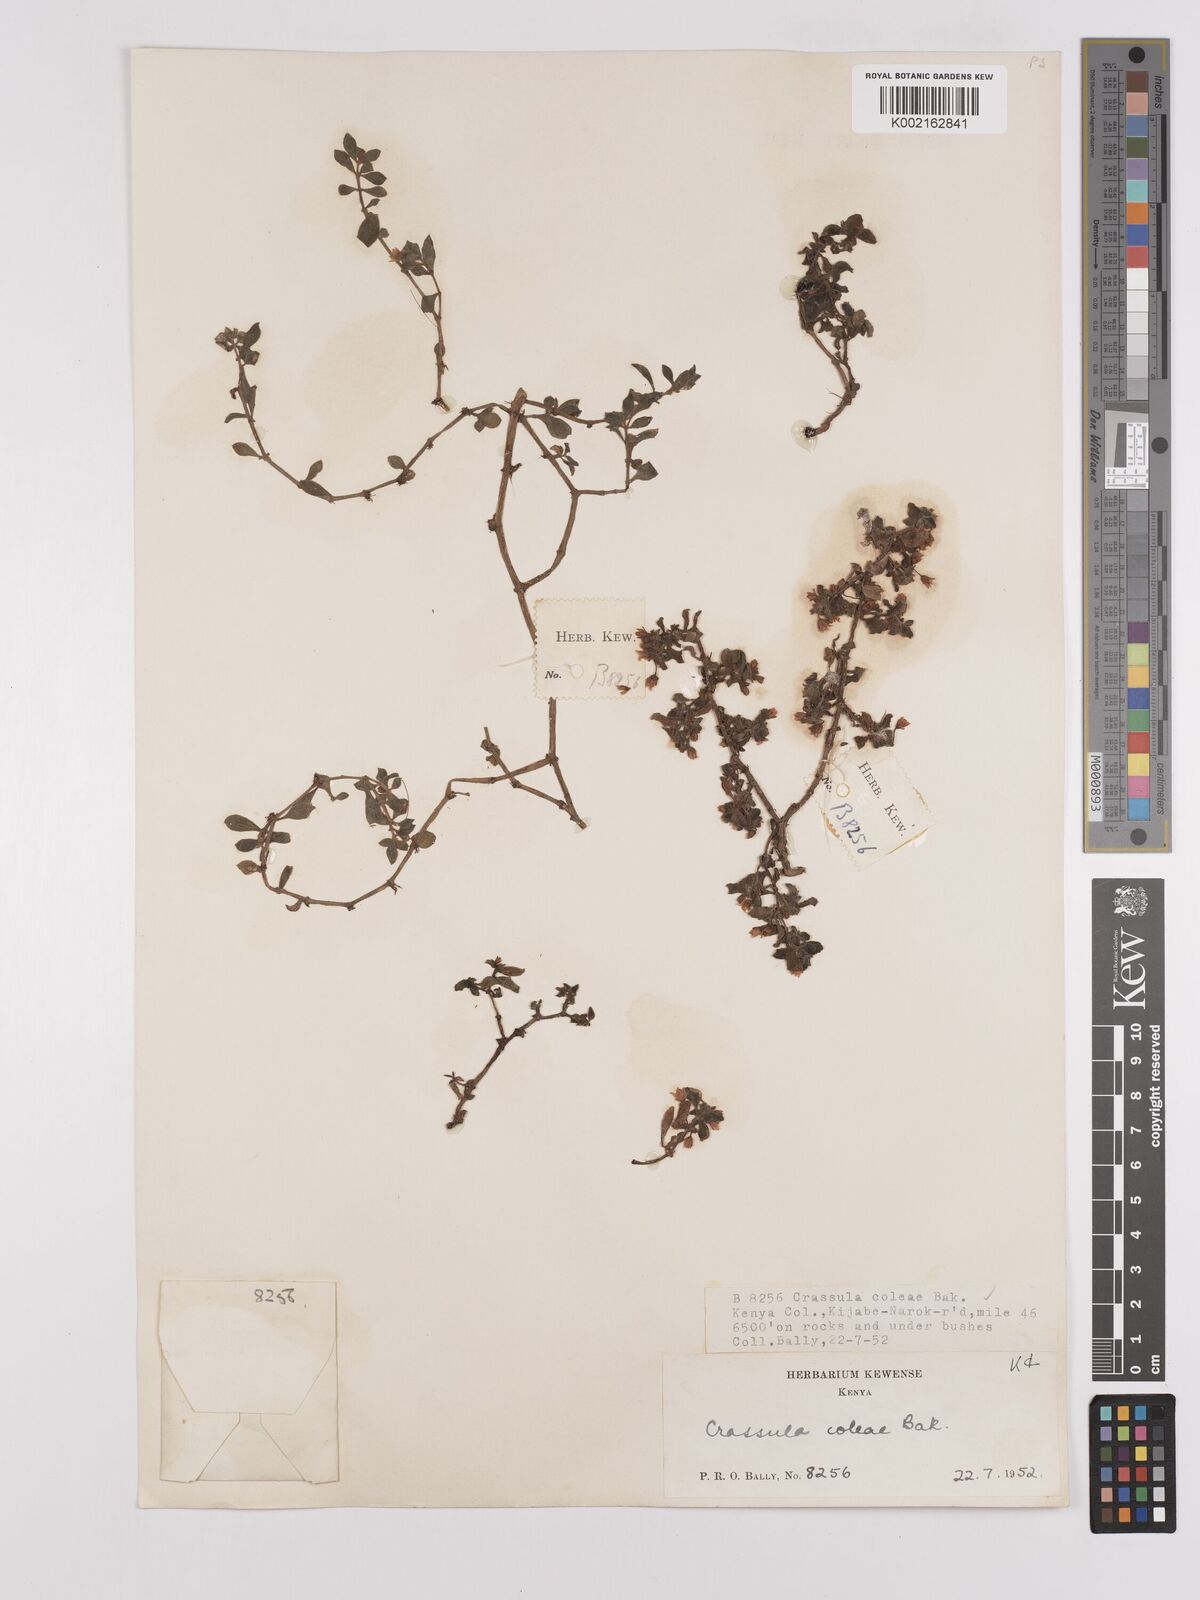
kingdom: Plantae
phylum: Tracheophyta
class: Magnoliopsida
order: Saxifragales
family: Crassulaceae
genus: Crassula
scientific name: Crassula volkensii
